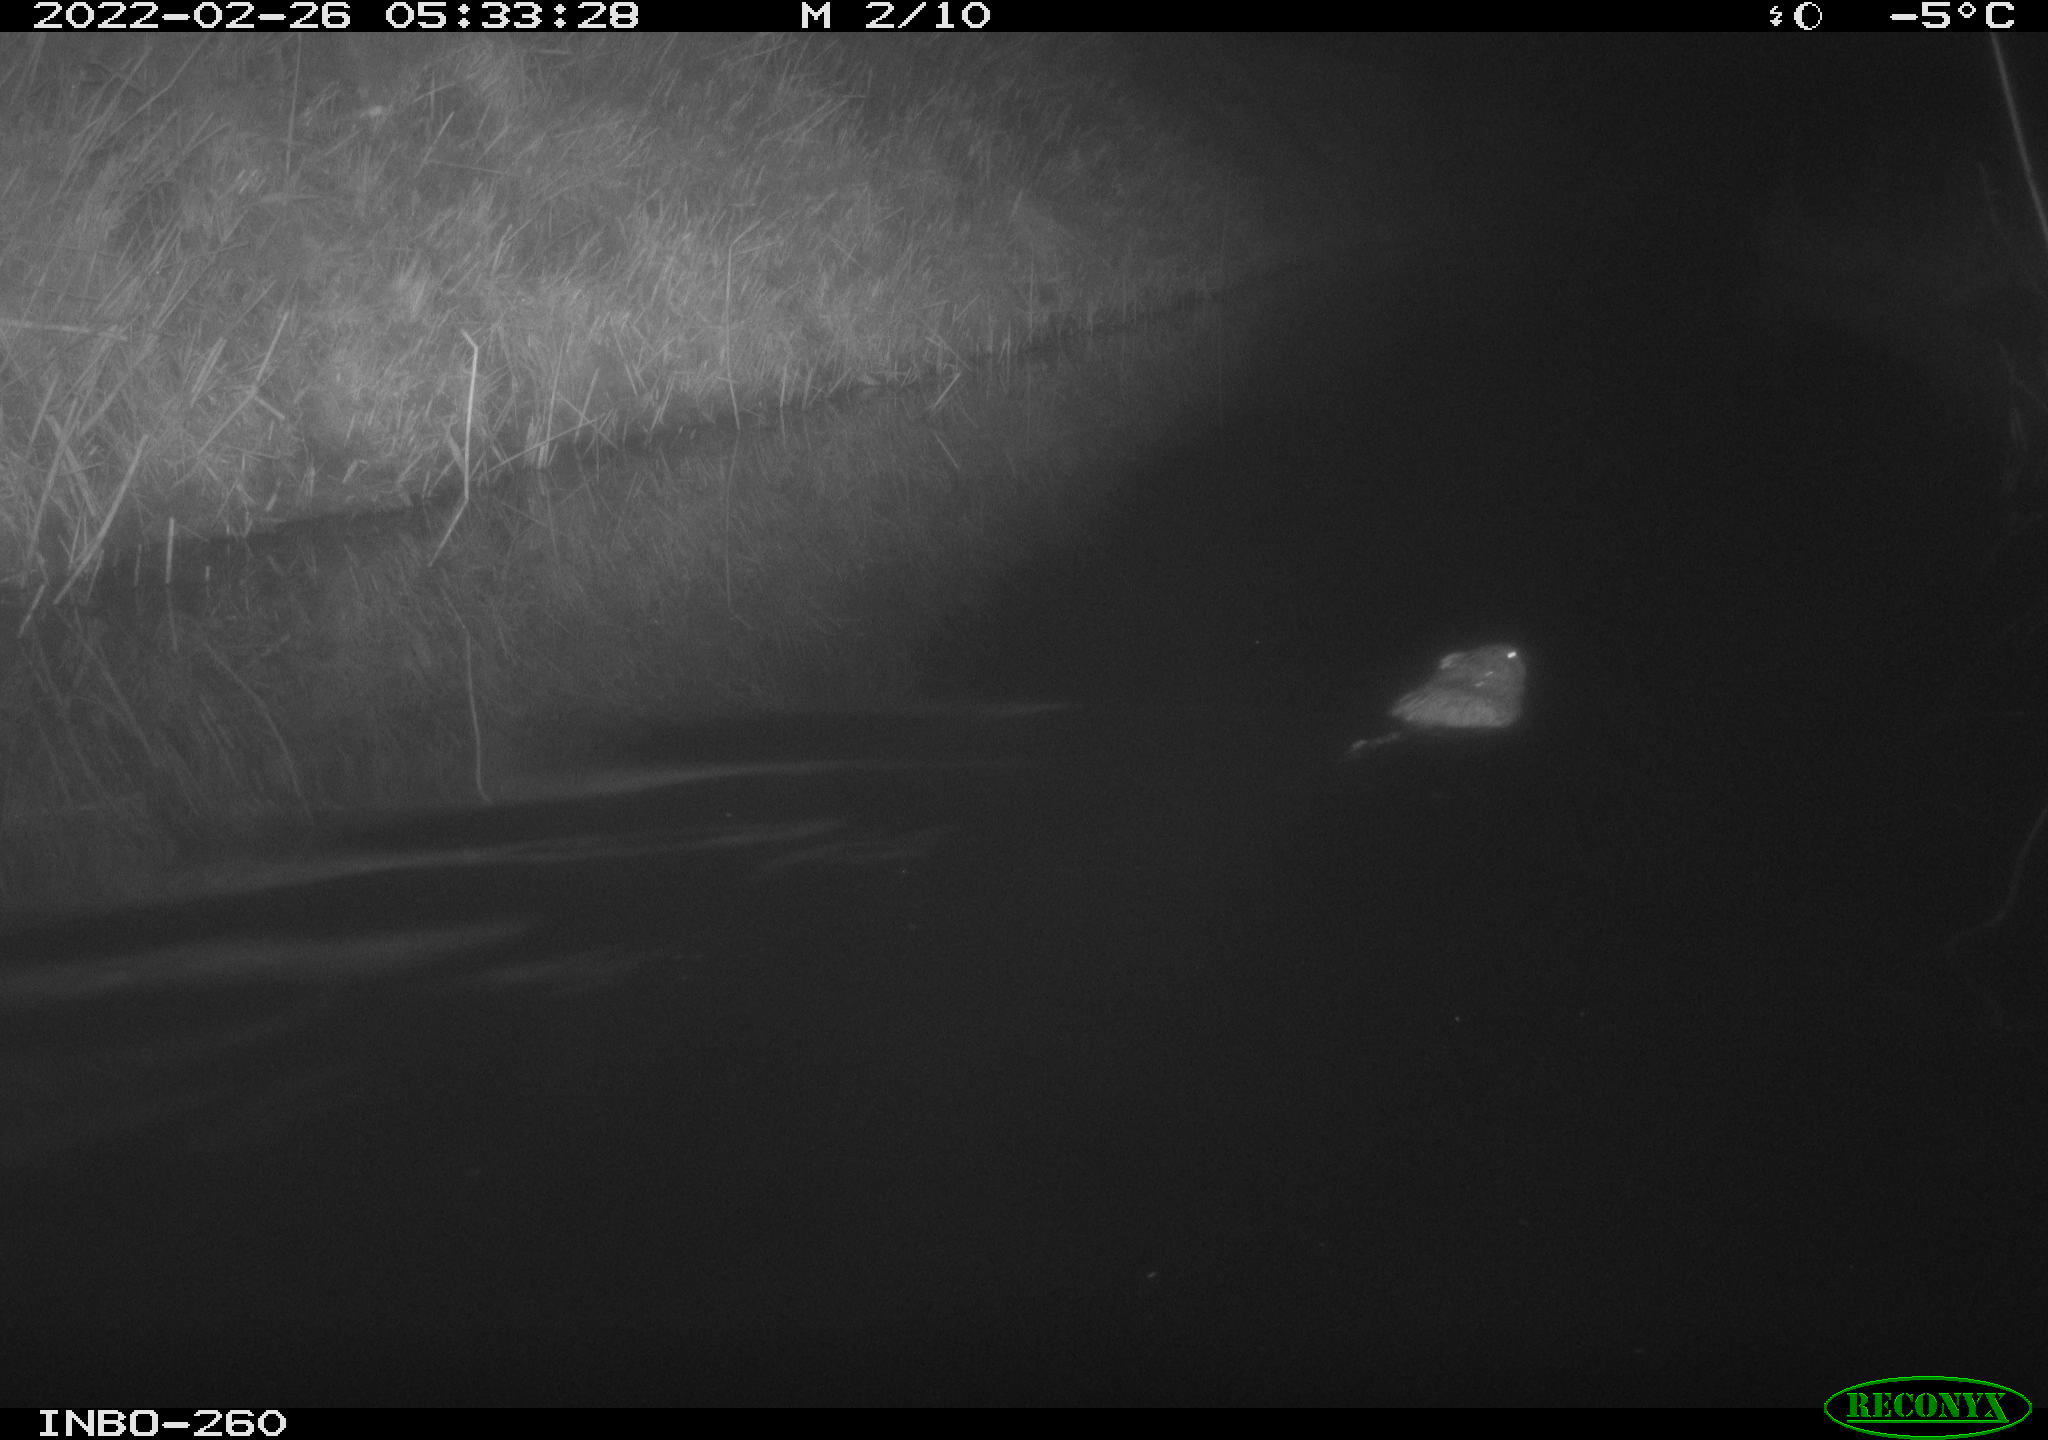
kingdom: Animalia
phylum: Chordata
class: Mammalia
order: Rodentia
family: Cricetidae
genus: Ondatra
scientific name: Ondatra zibethicus
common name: Muskrat
